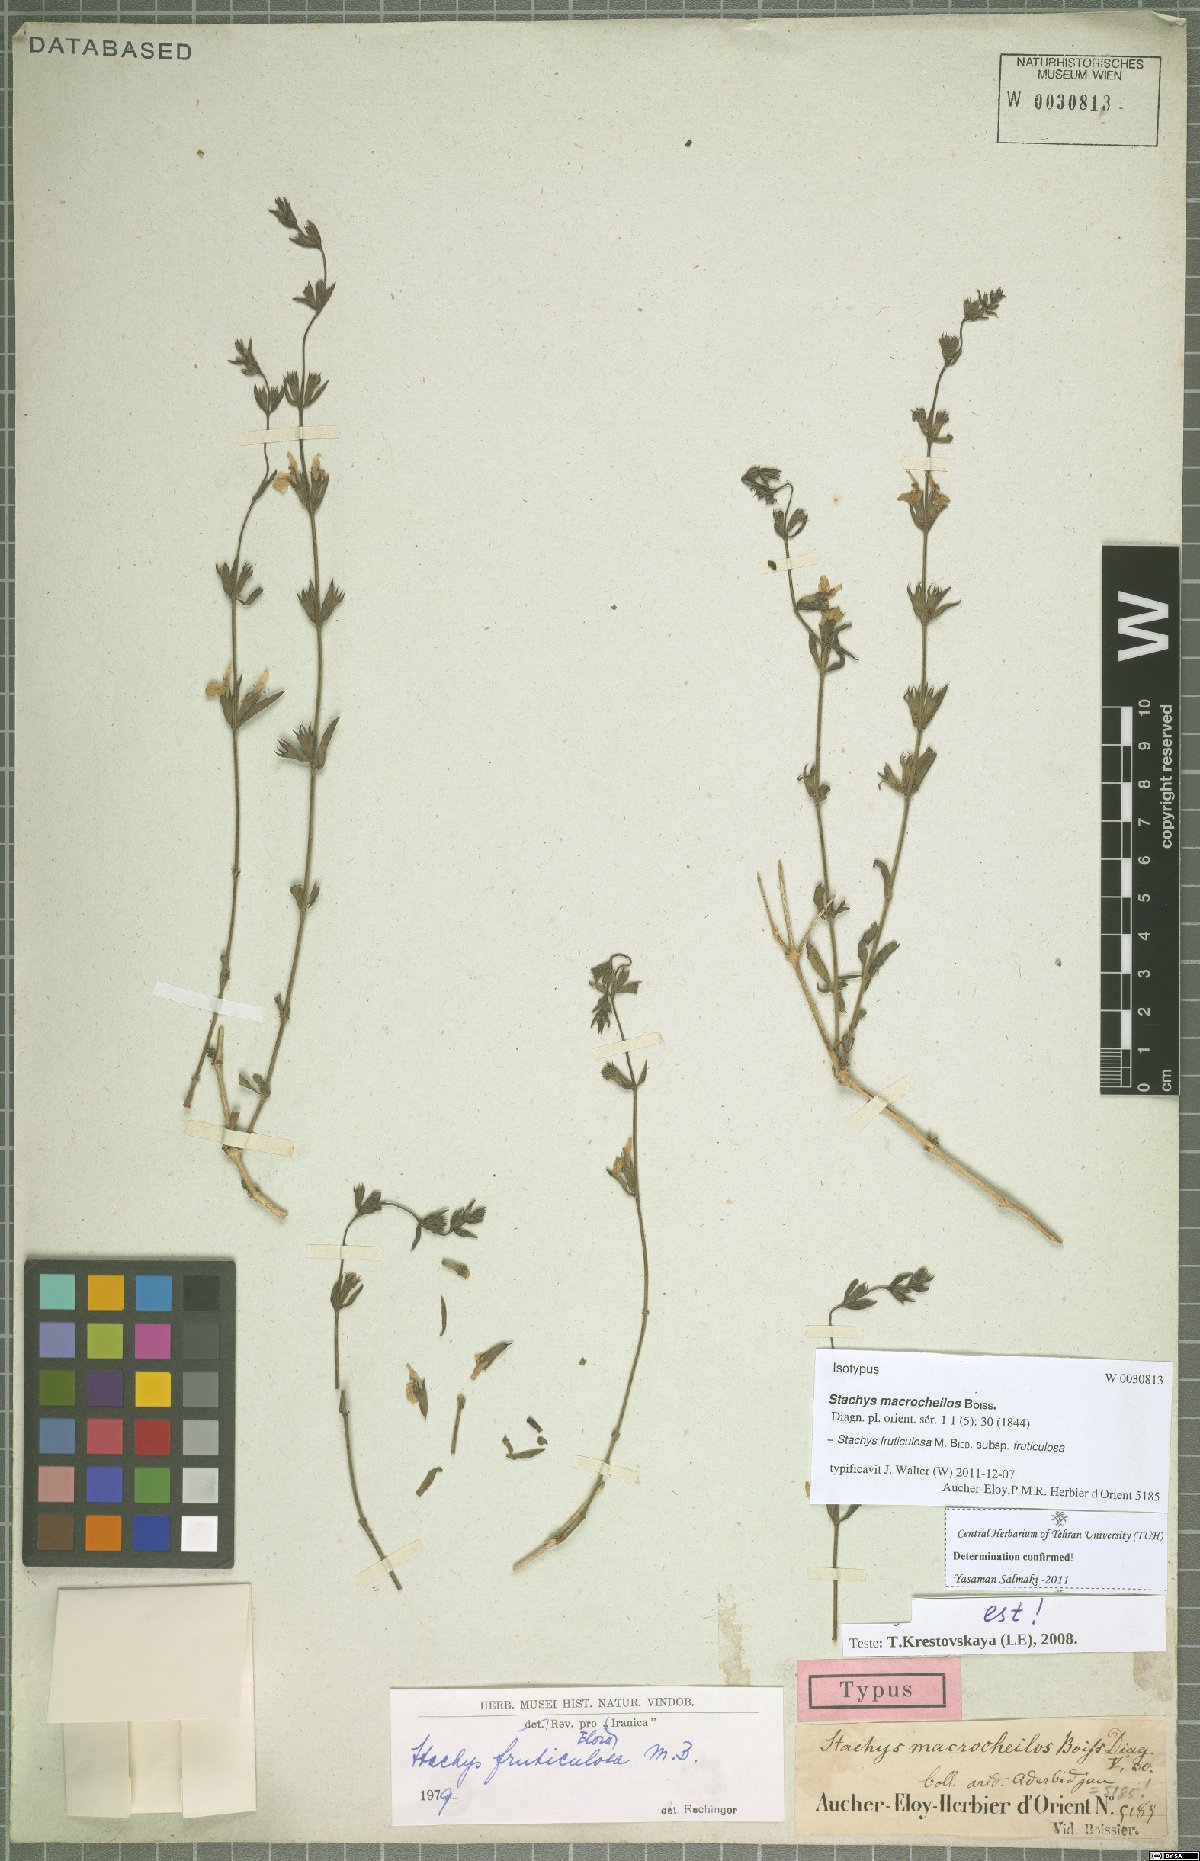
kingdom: Plantae
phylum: Tracheophyta
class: Magnoliopsida
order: Lamiales
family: Lamiaceae
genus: Stachys
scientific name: Stachys fruticulosa
